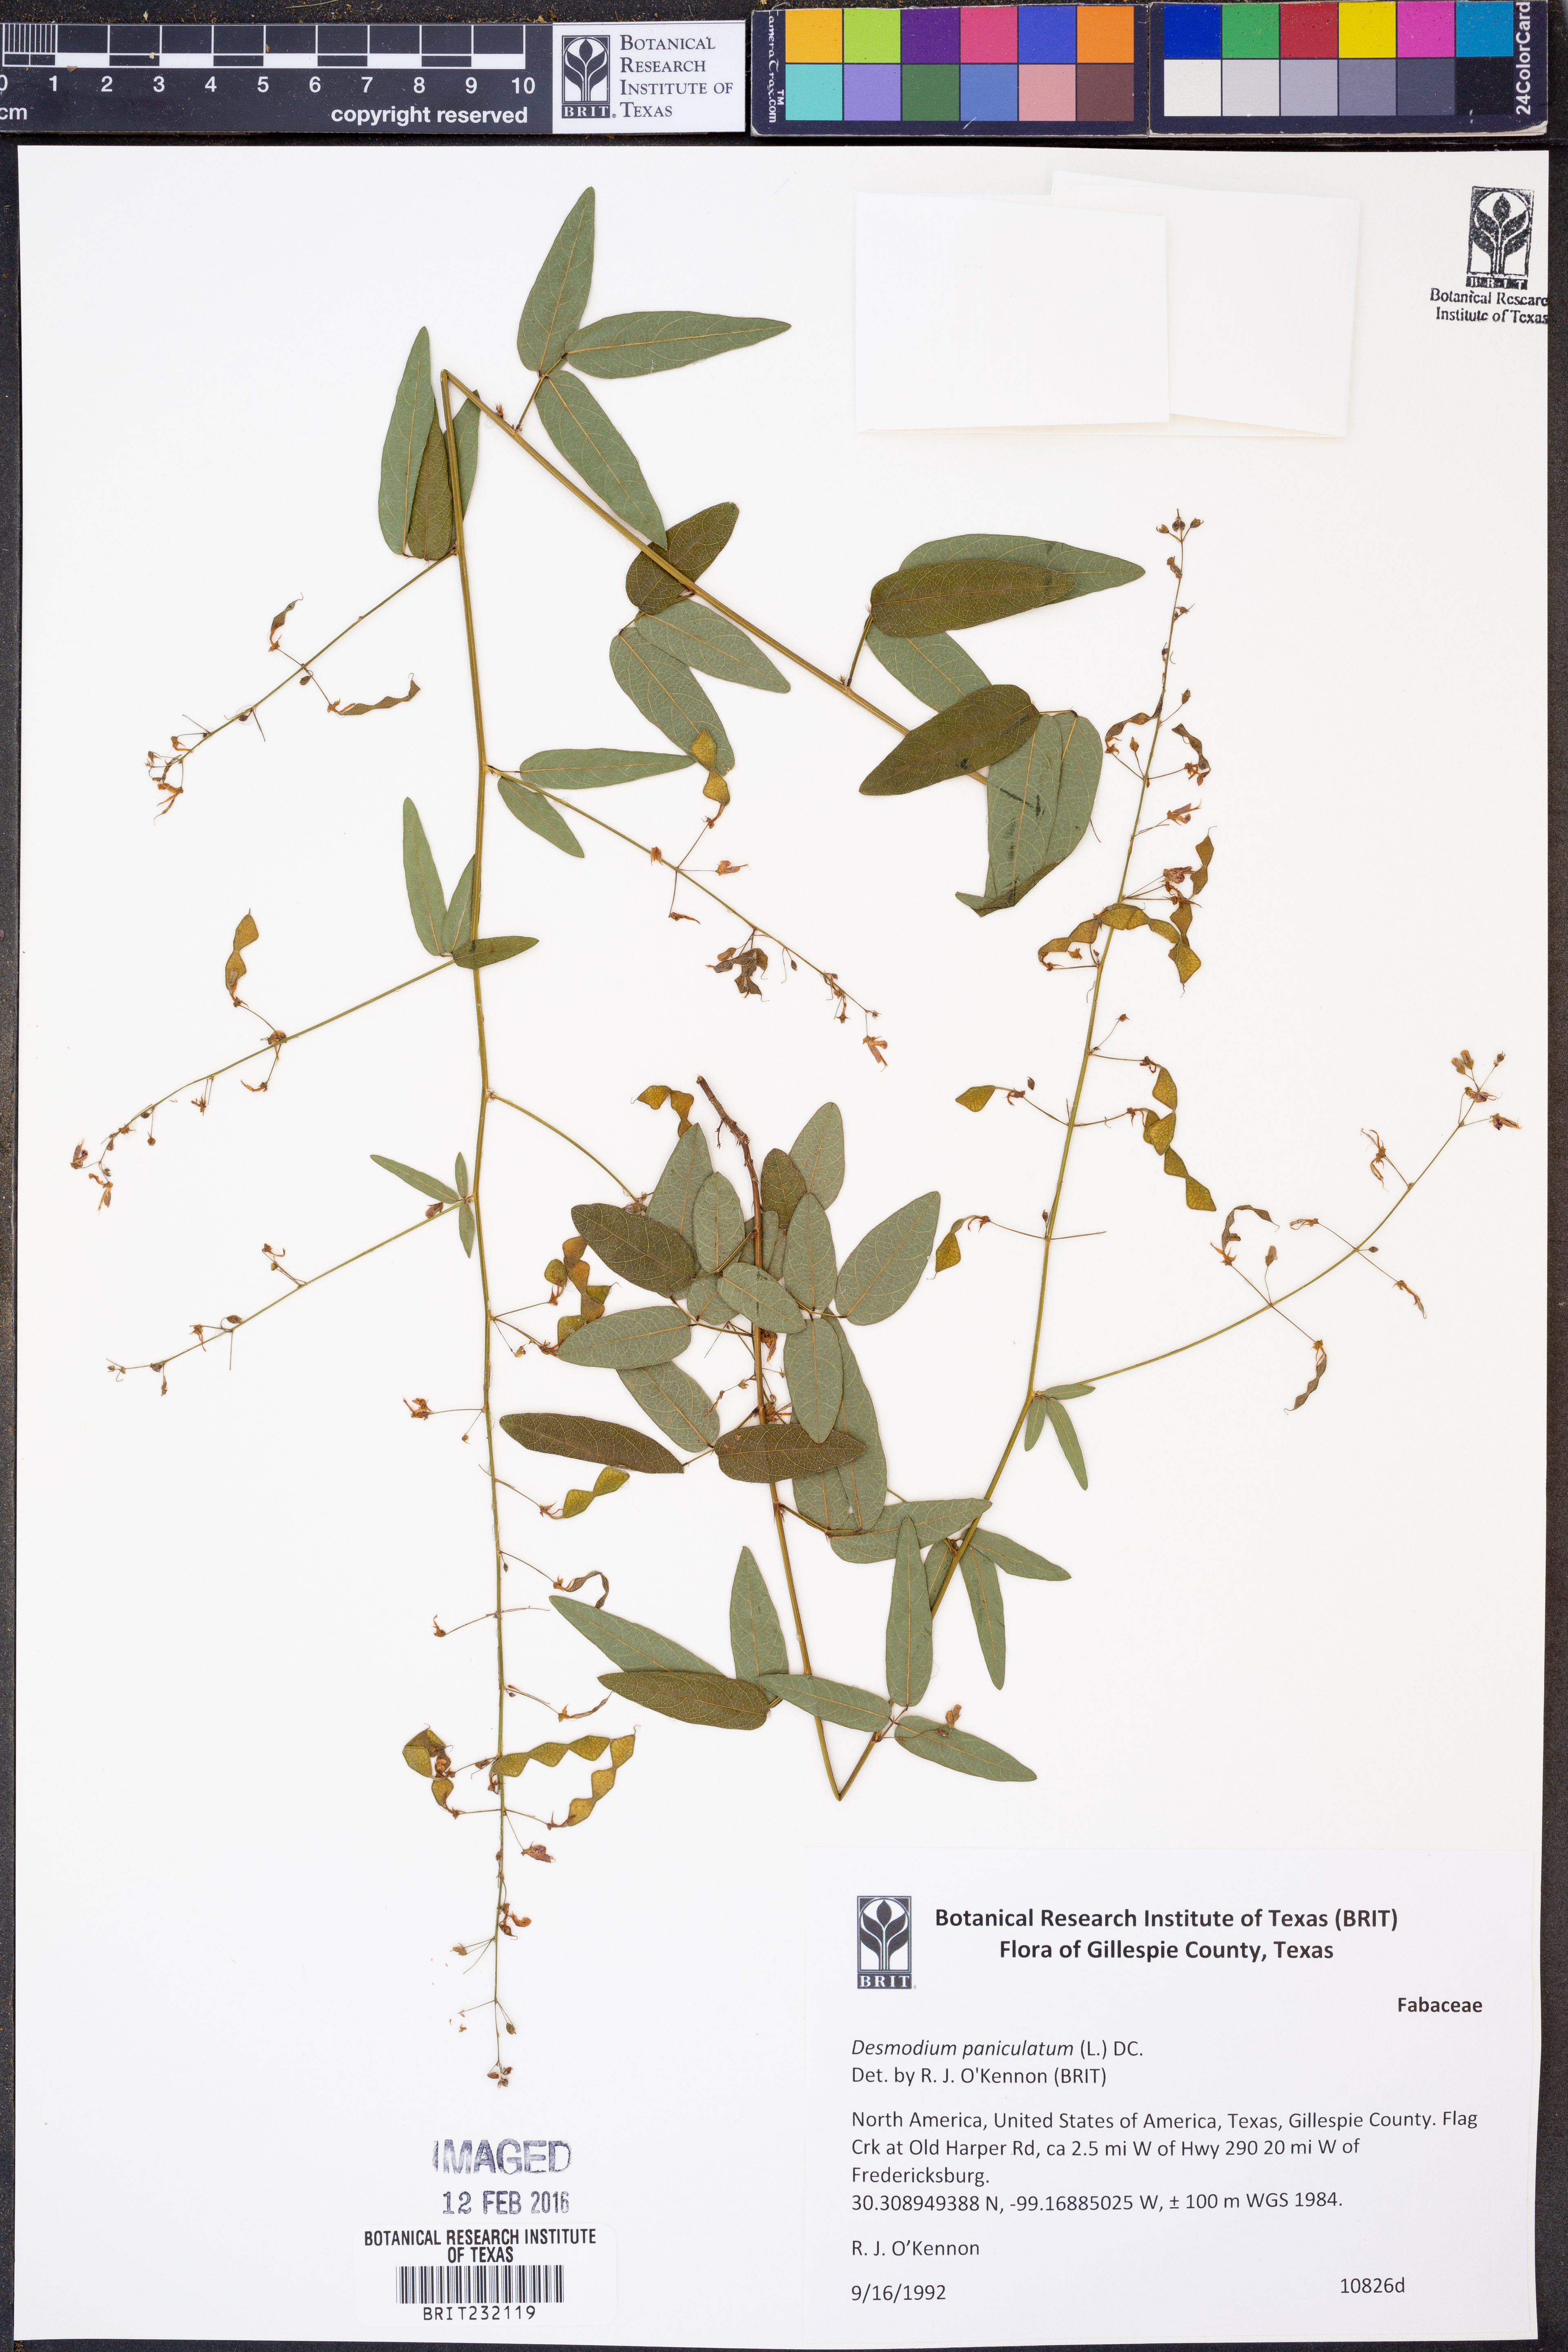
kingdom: Plantae
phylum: Tracheophyta
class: Magnoliopsida
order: Fabales
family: Fabaceae
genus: Desmodium
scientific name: Desmodium paniculatum
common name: Panicled tick-clover
